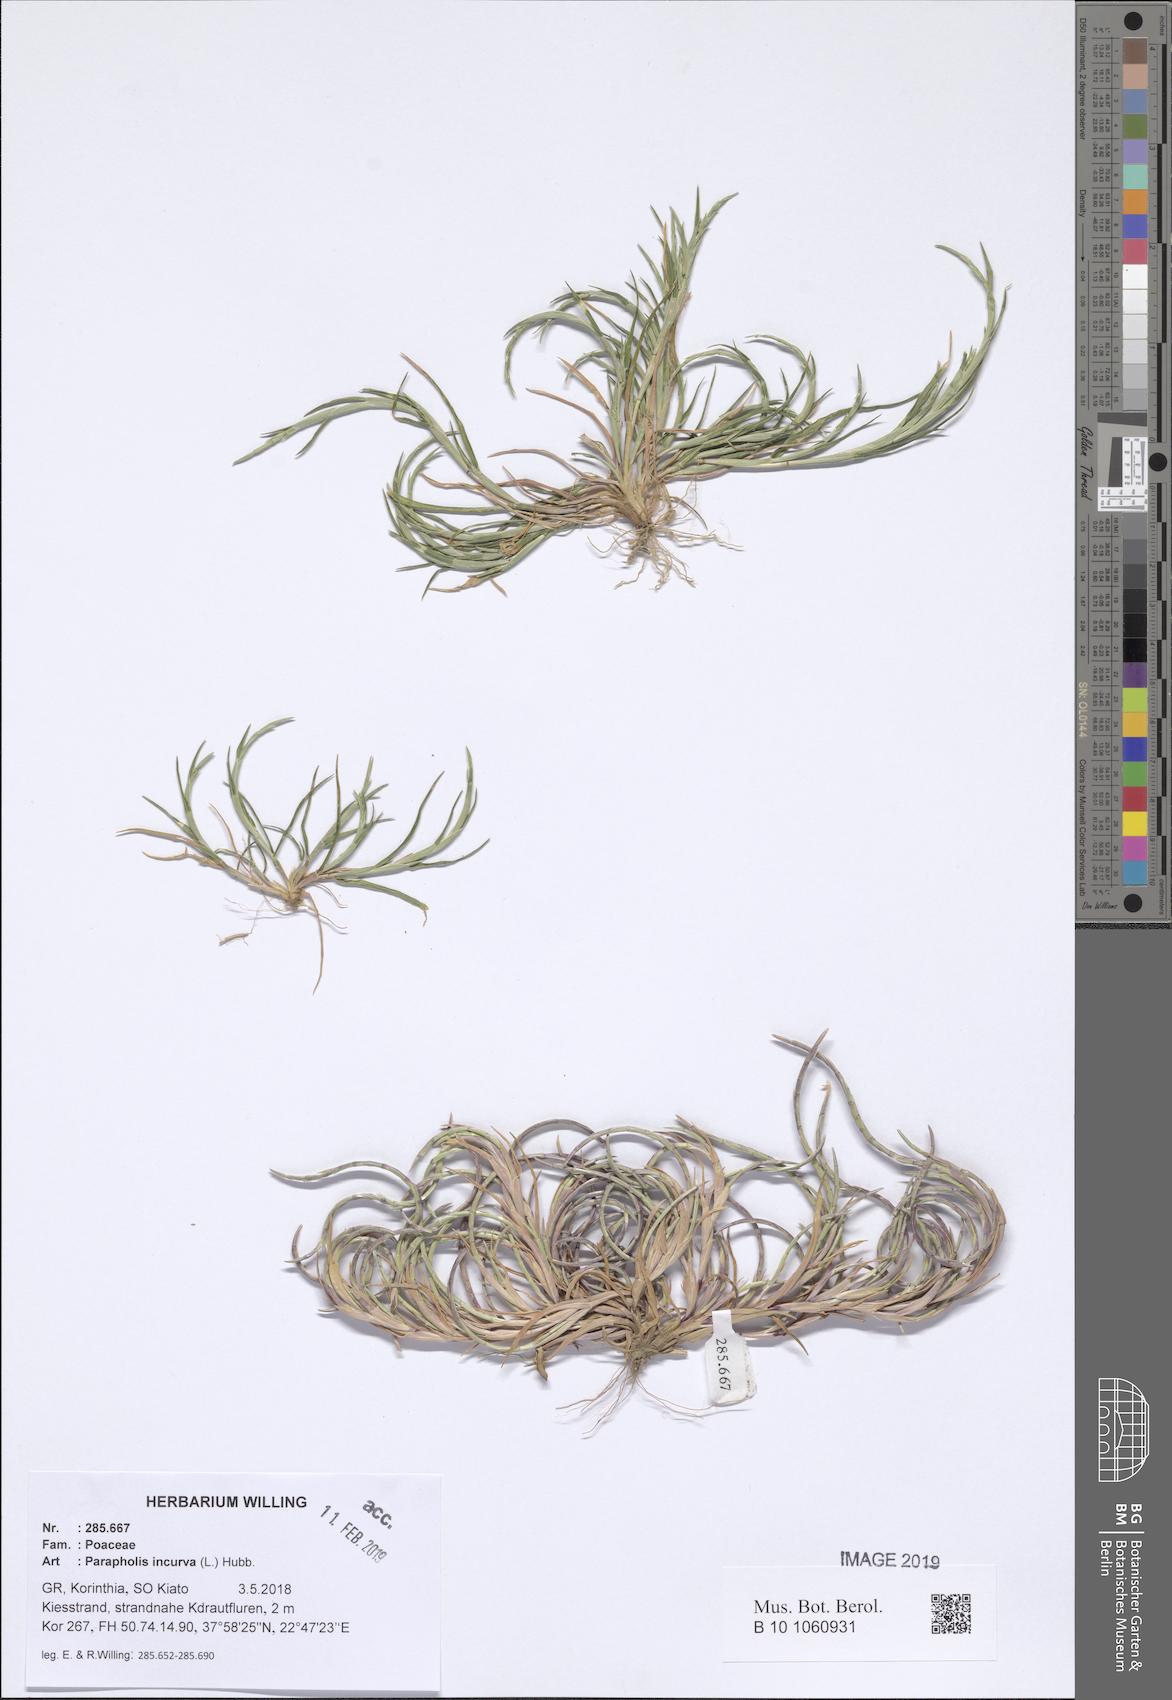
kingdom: Plantae
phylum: Tracheophyta
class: Liliopsida
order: Poales
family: Poaceae
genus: Parapholis
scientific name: Parapholis incurva
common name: Curved sicklegrass
